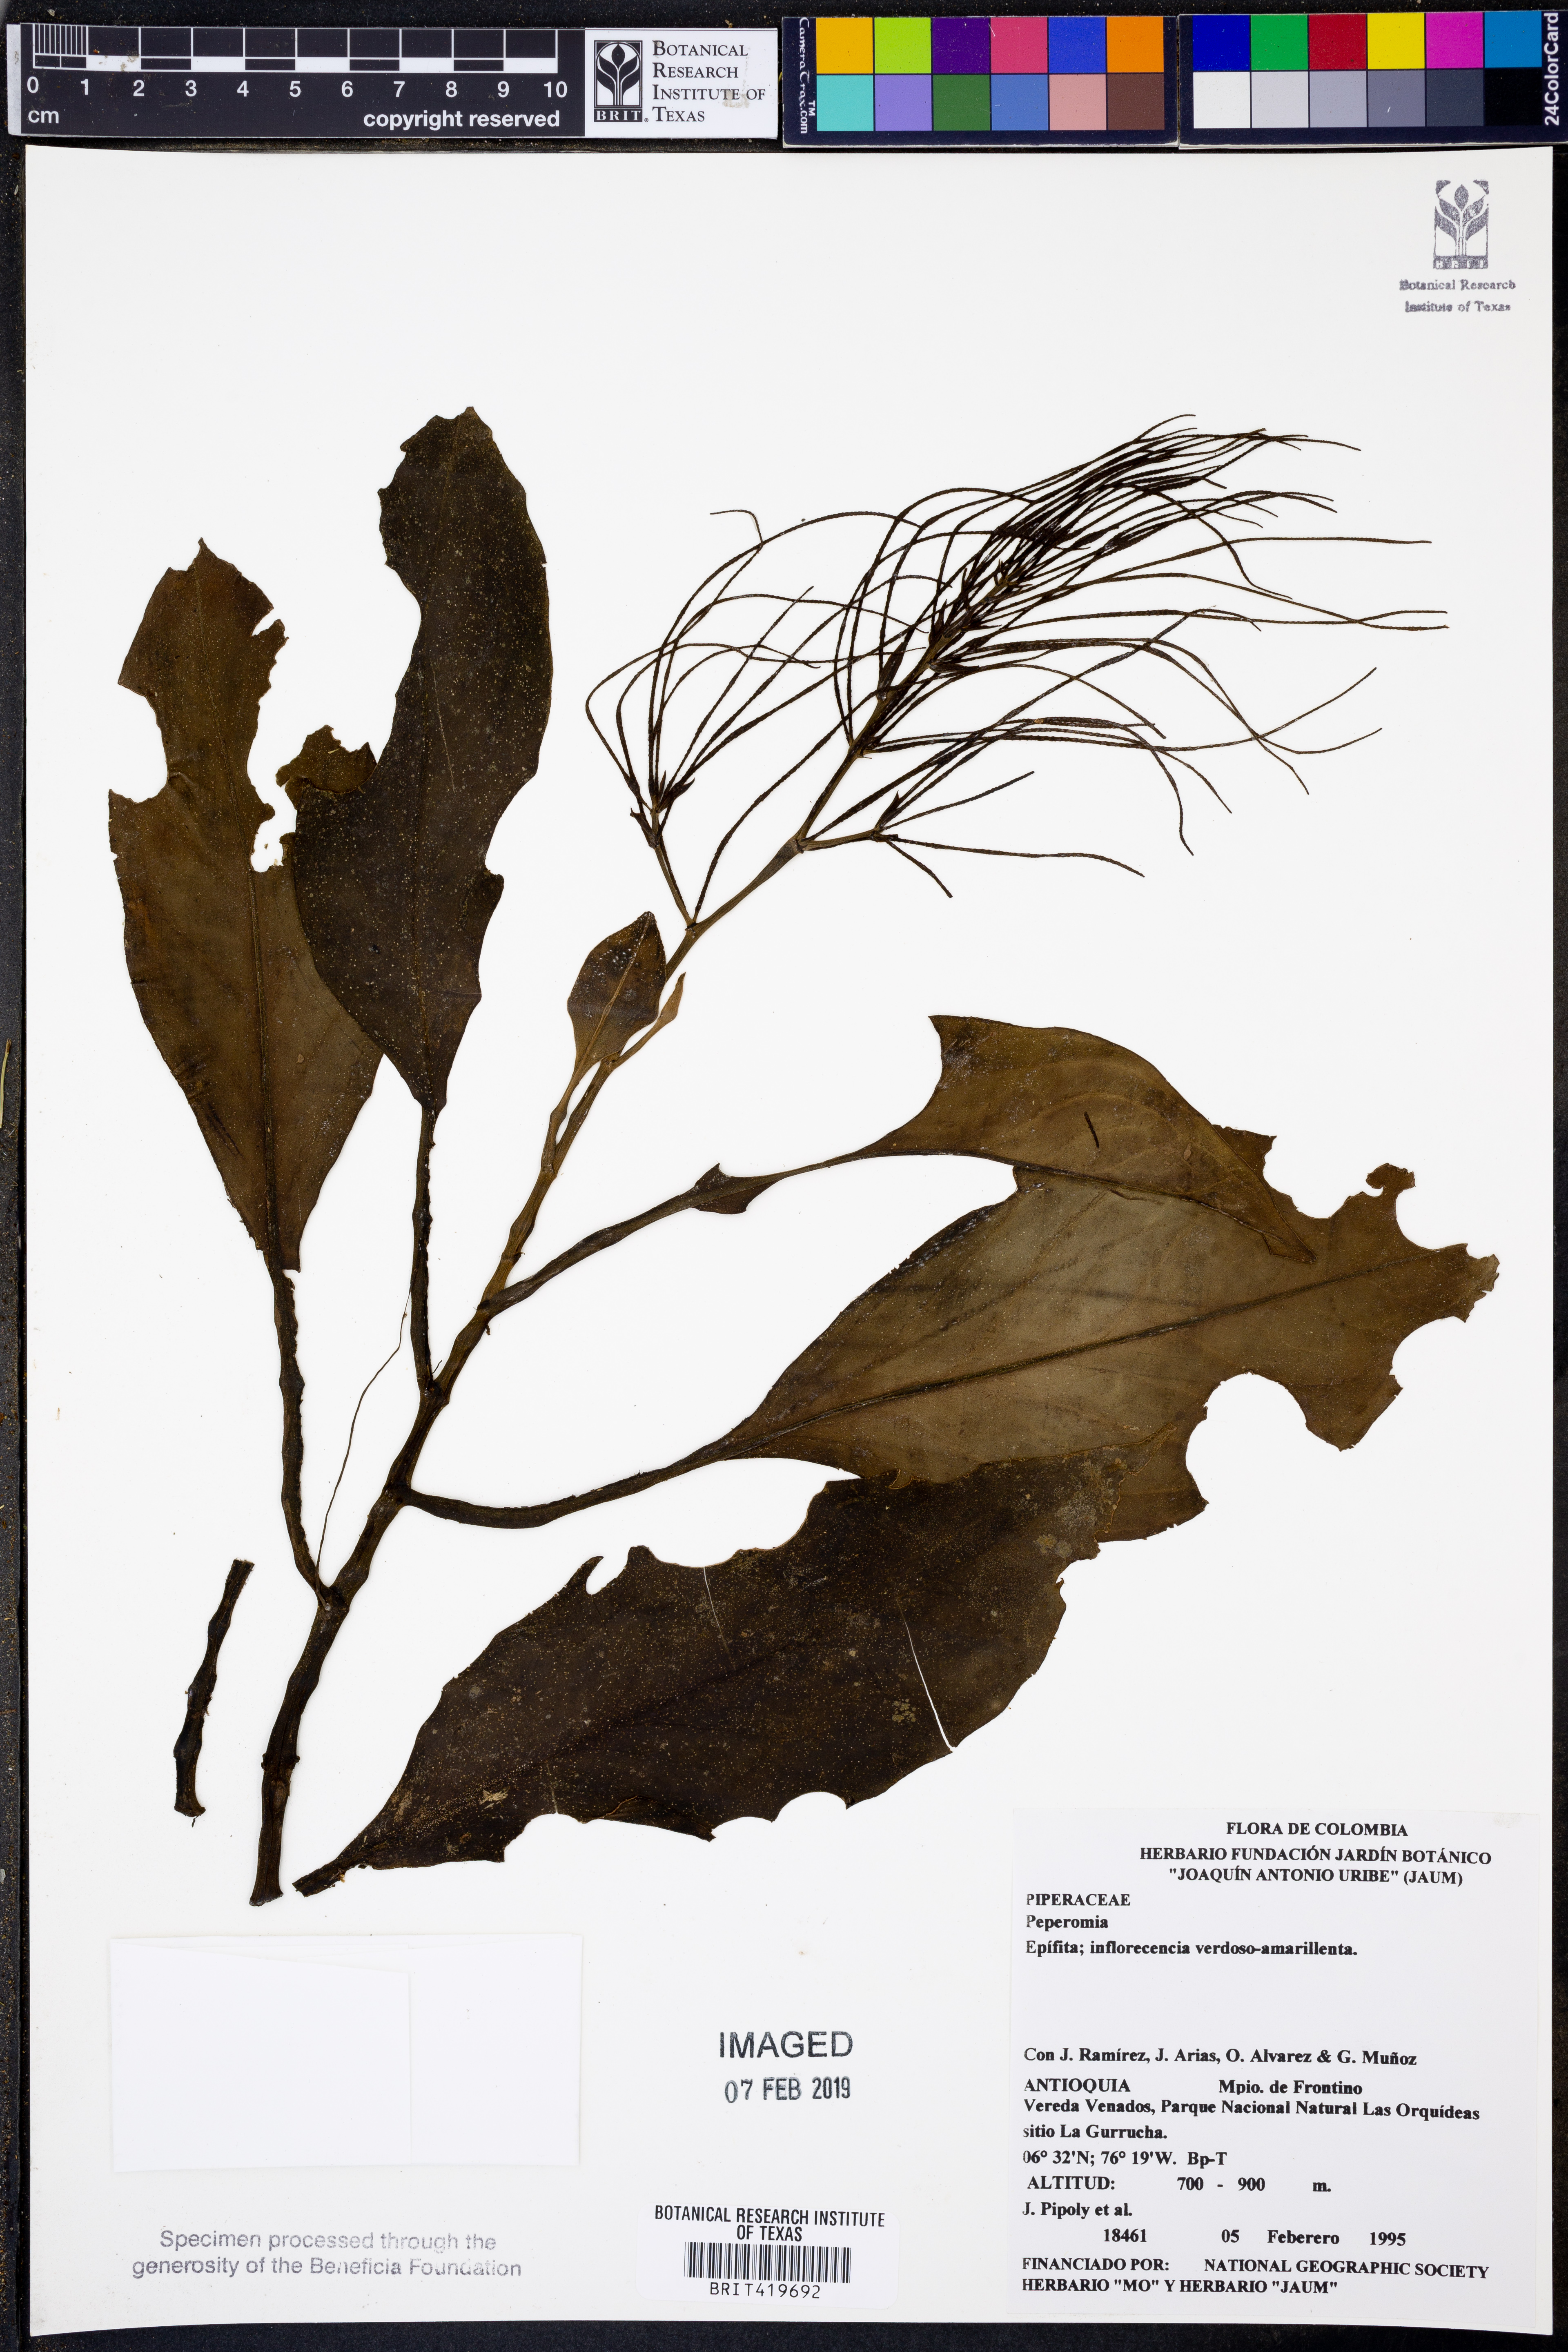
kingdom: Plantae
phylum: Tracheophyta
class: Magnoliopsida
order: Piperales
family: Piperaceae
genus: Peperomia
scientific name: Peperomia
